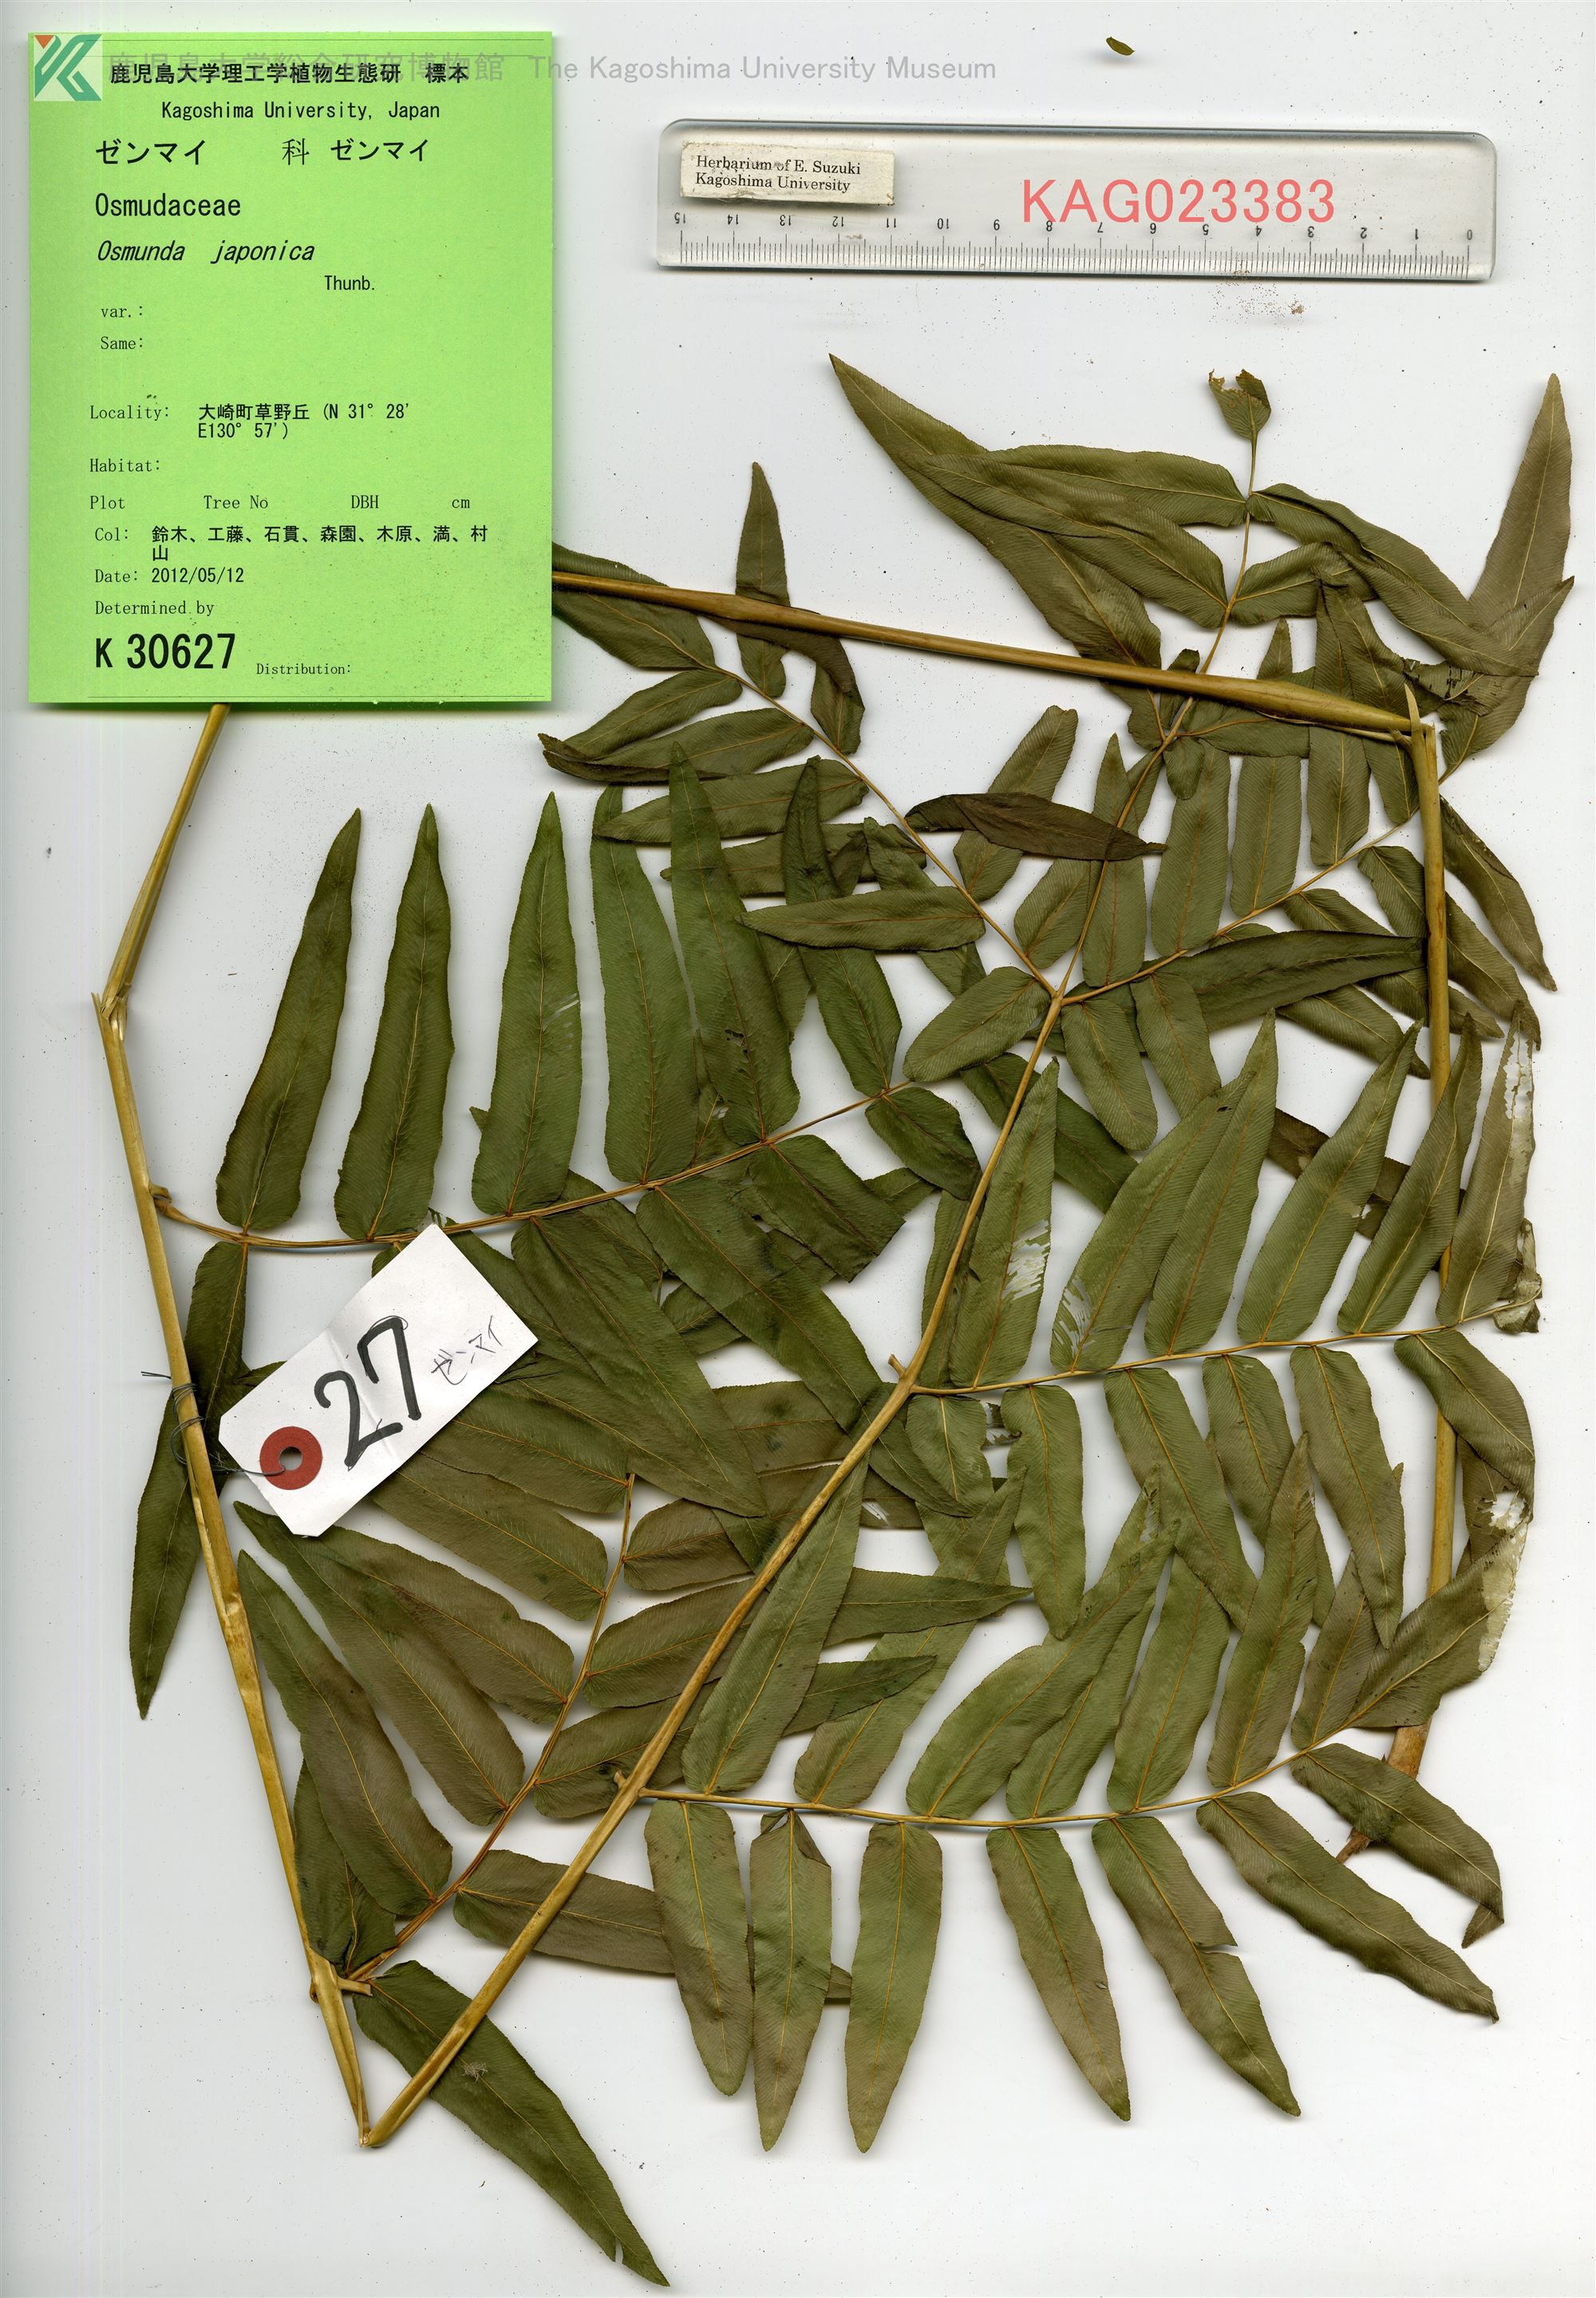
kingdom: Plantae
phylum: Tracheophyta
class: Polypodiopsida
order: Osmundales
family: Osmundaceae
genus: Osmunda
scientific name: Osmunda japonica
